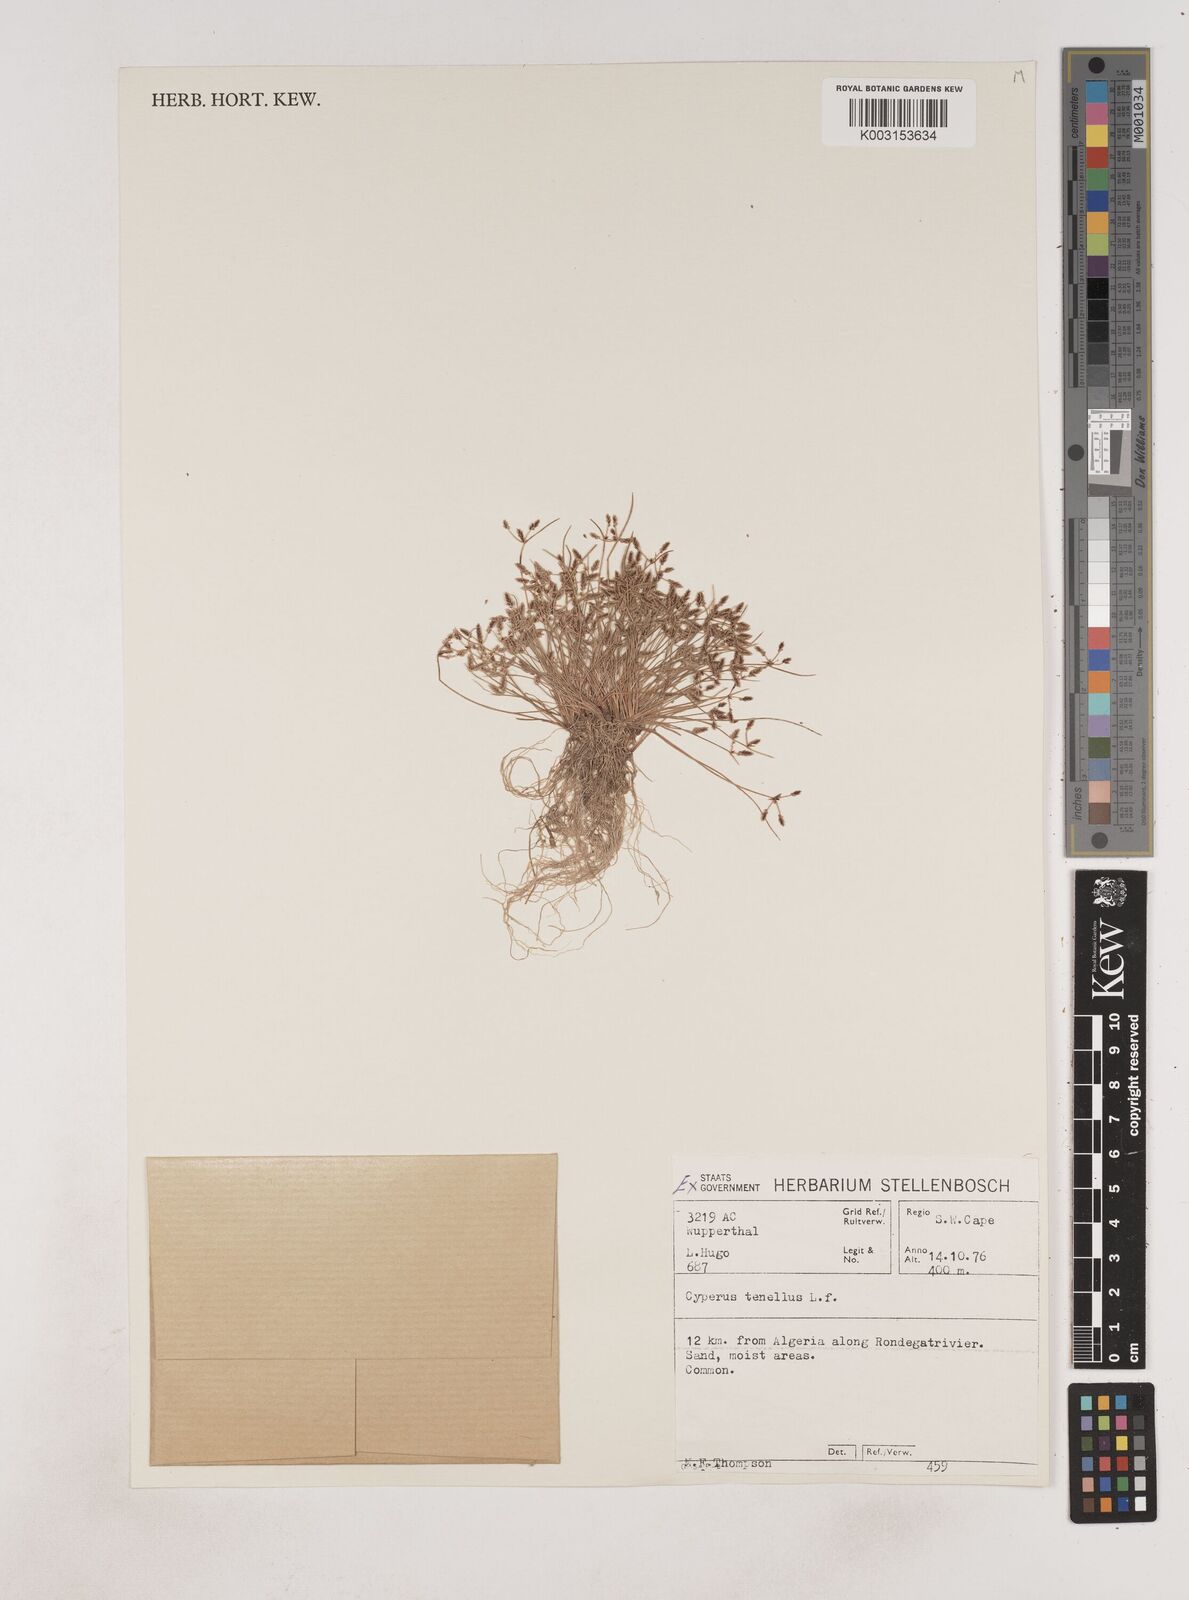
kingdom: Plantae
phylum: Tracheophyta
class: Liliopsida
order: Poales
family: Cyperaceae
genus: Isolepis
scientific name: Isolepis levynsiana
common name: Sedge
